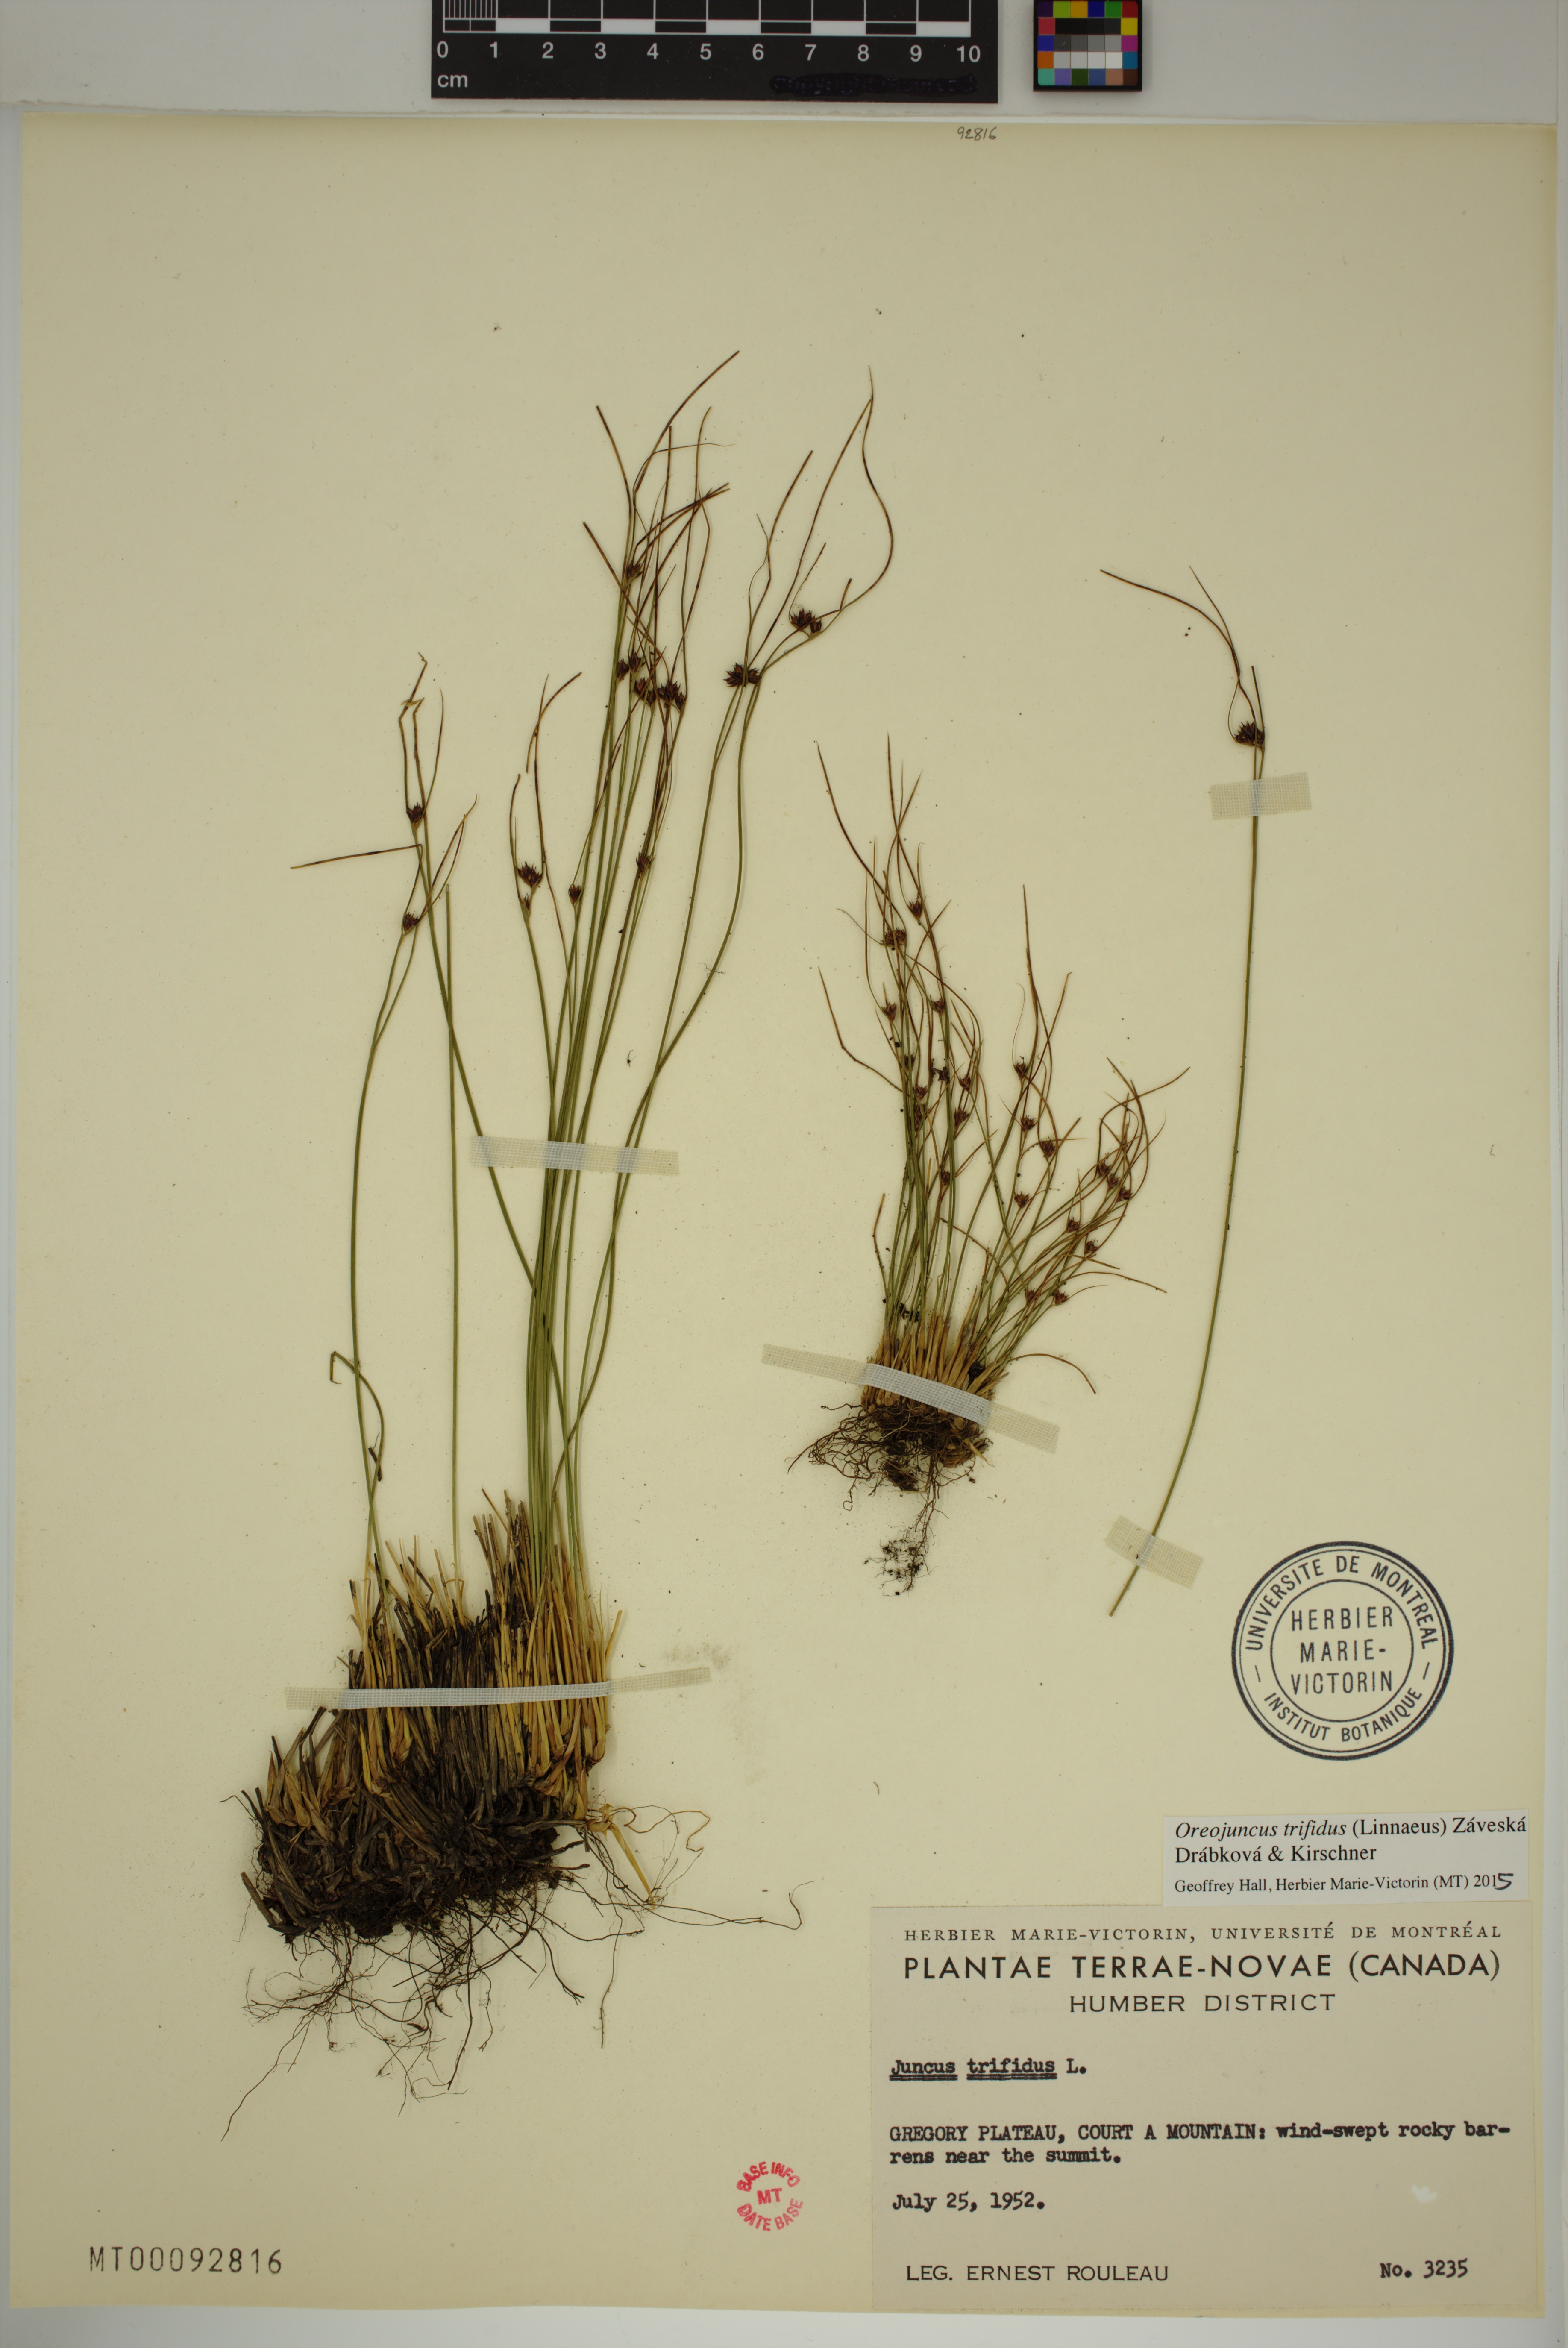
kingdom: Plantae
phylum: Tracheophyta
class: Liliopsida
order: Poales
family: Juncaceae
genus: Oreojuncus
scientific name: Oreojuncus trifidus
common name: Highland rush
